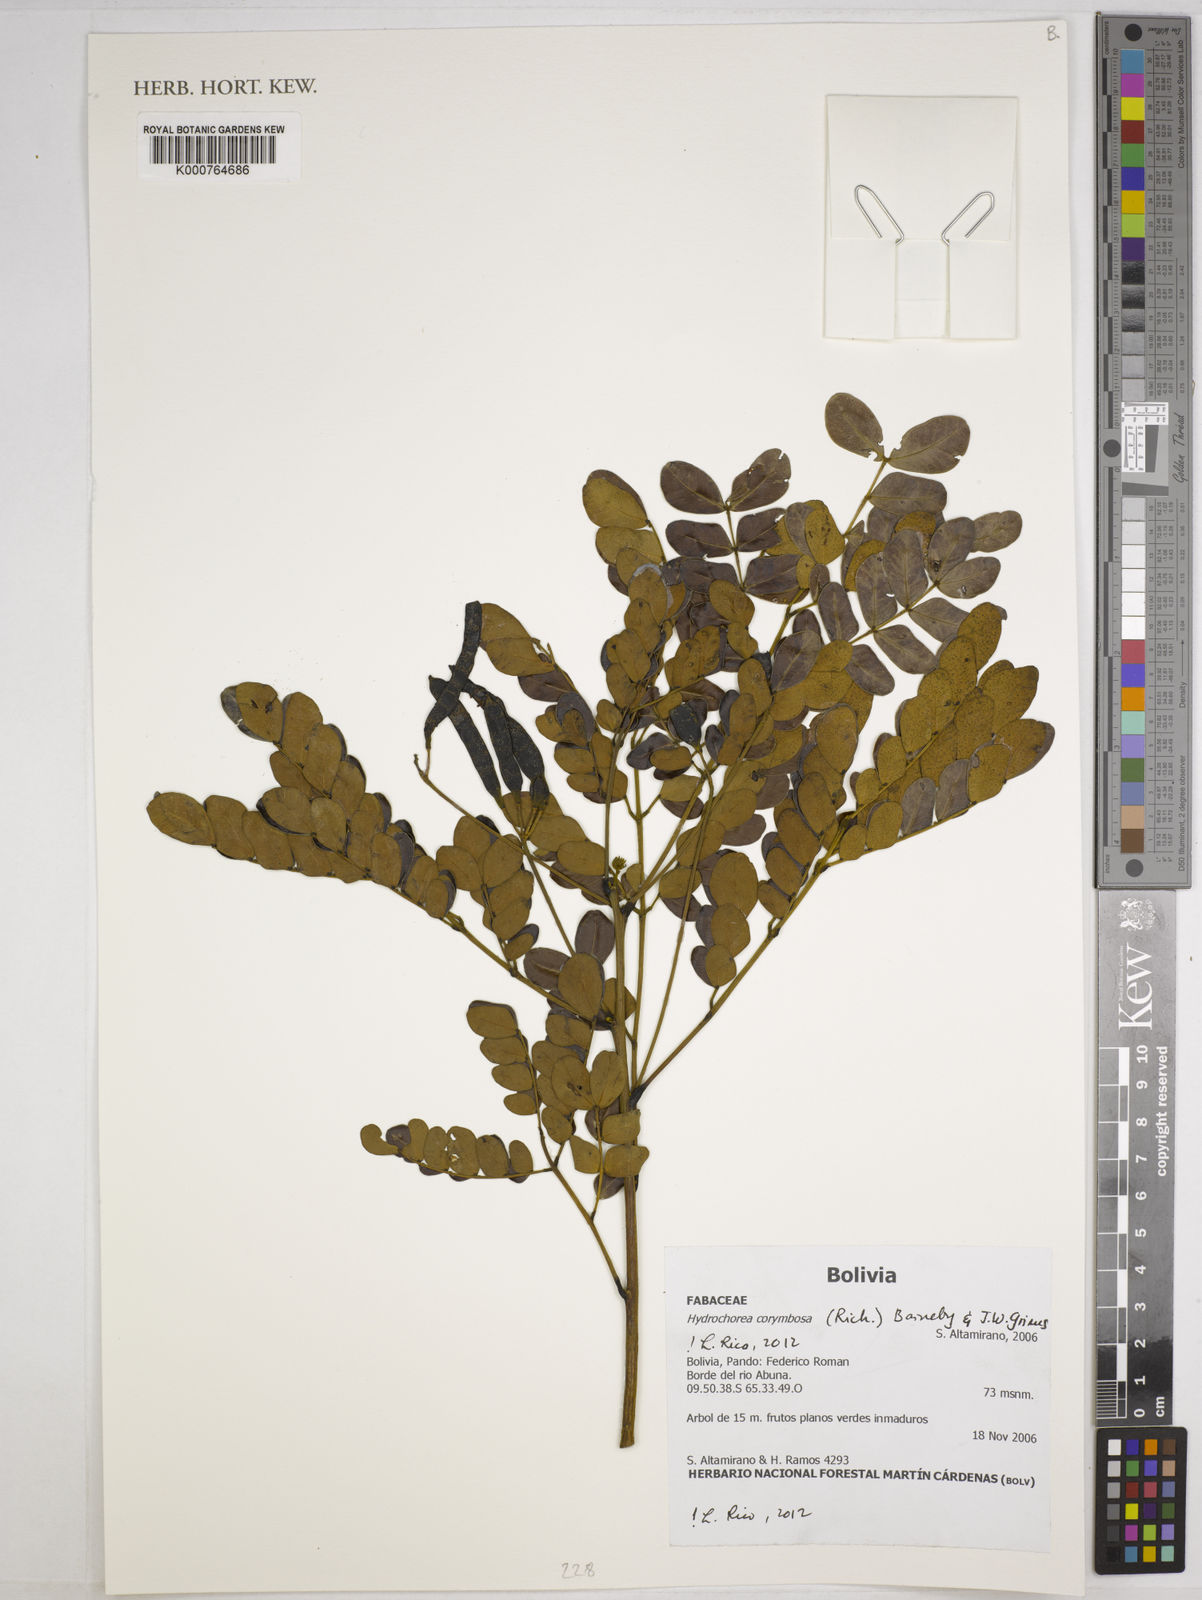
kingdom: Plantae
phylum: Tracheophyta
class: Magnoliopsida
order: Fabales
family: Fabaceae
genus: Hydrochorea
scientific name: Hydrochorea corymbosa
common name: Swamp manariballi
